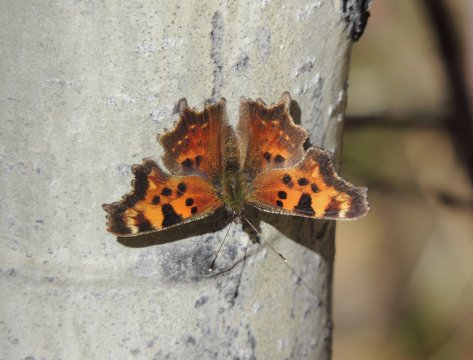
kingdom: Animalia
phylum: Arthropoda
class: Insecta
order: Lepidoptera
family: Nymphalidae
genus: Polygonia
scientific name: Polygonia faunus
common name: Green Comma
